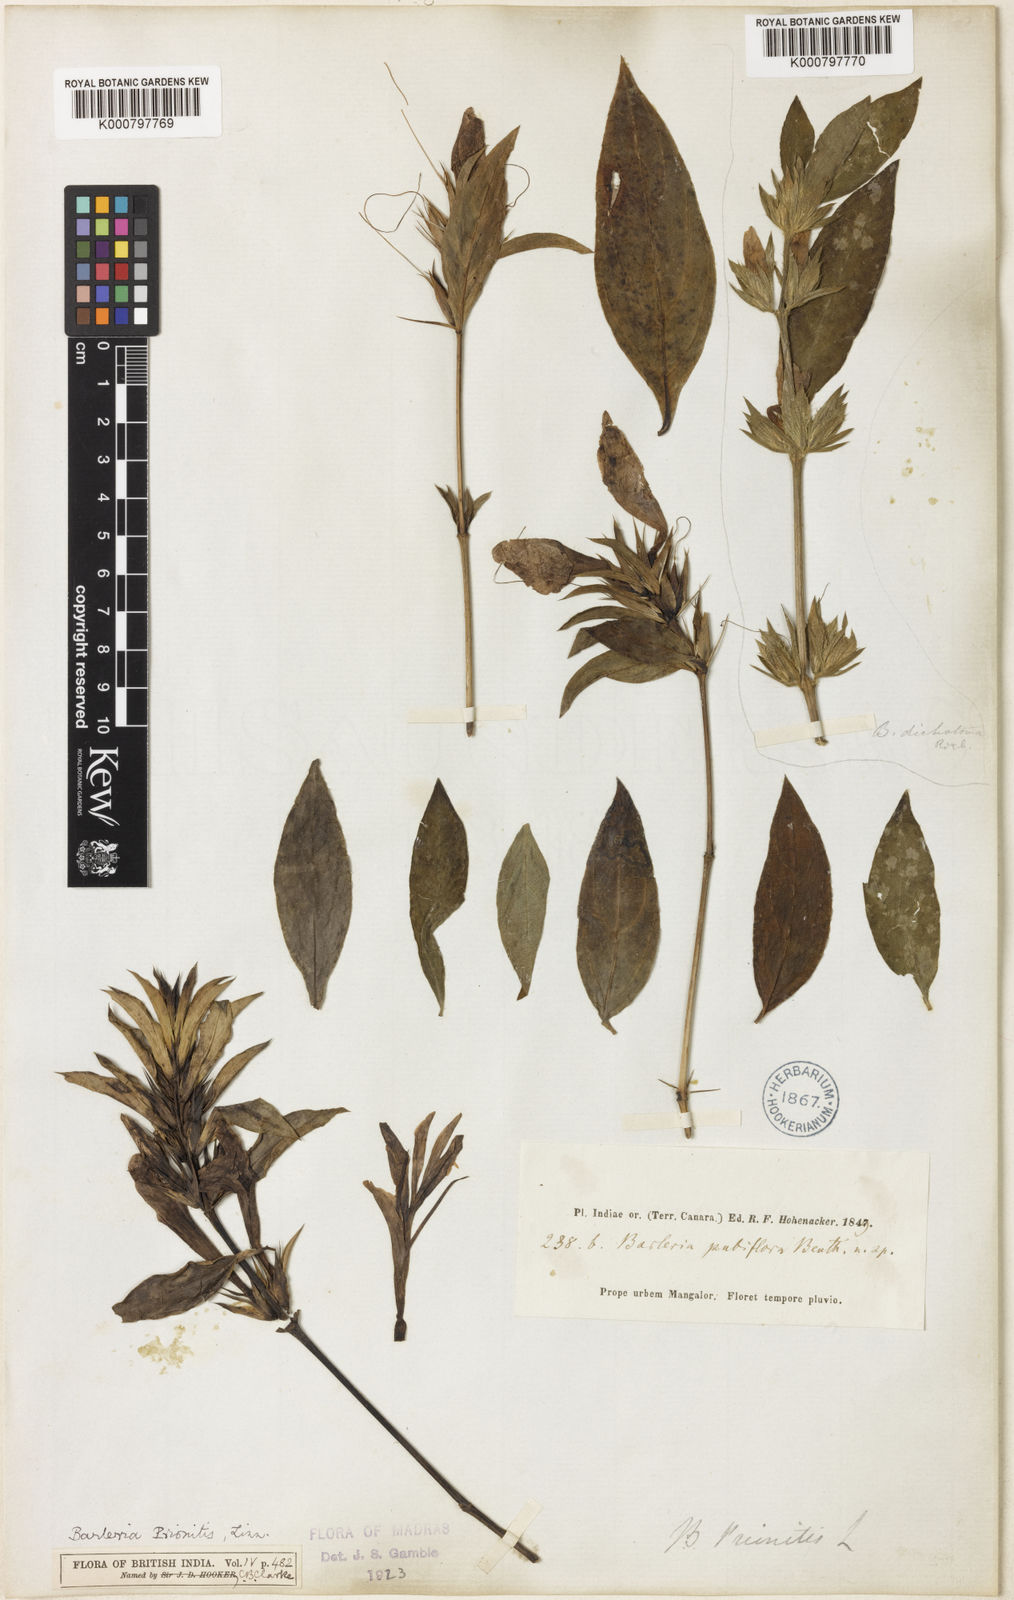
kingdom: Plantae
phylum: Tracheophyta
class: Magnoliopsida
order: Lamiales
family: Acanthaceae
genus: Barleria
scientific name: Barleria prionitis
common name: Barleria
